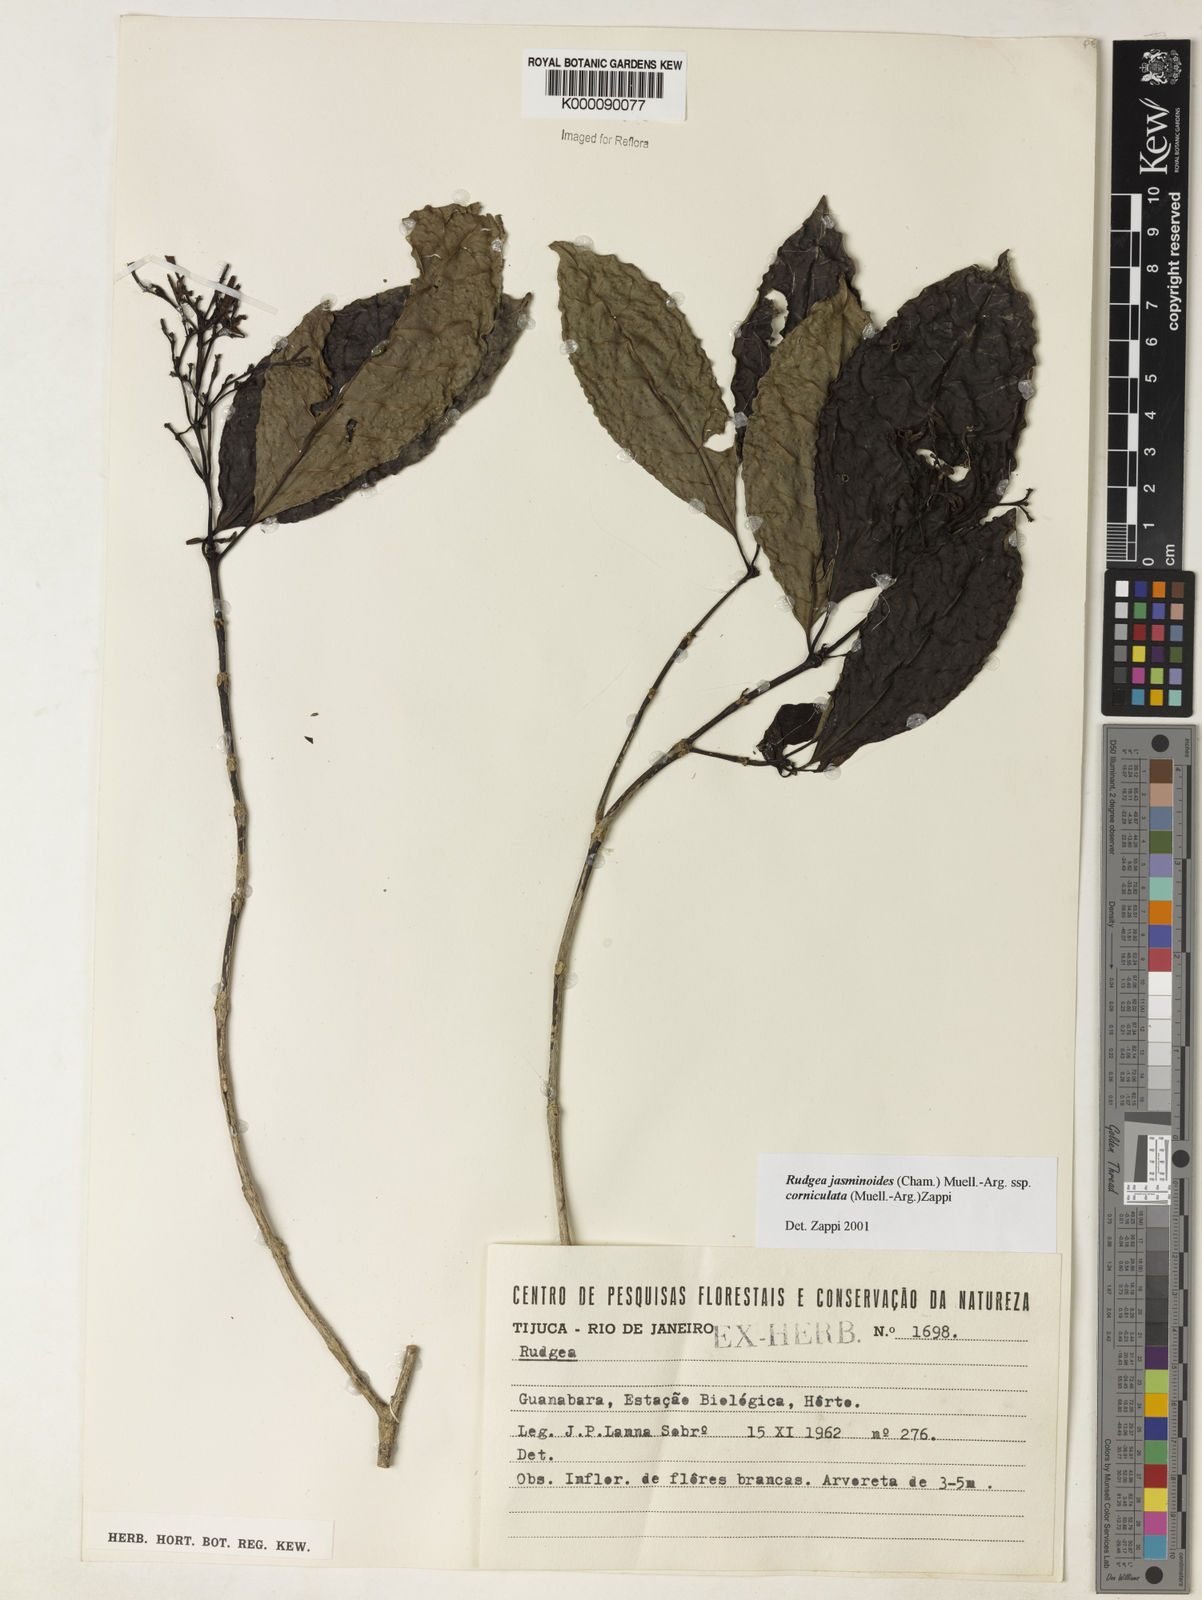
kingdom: Plantae
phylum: Tracheophyta
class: Magnoliopsida
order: Gentianales
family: Rubiaceae
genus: Rudgea
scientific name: Rudgea jasminoides
